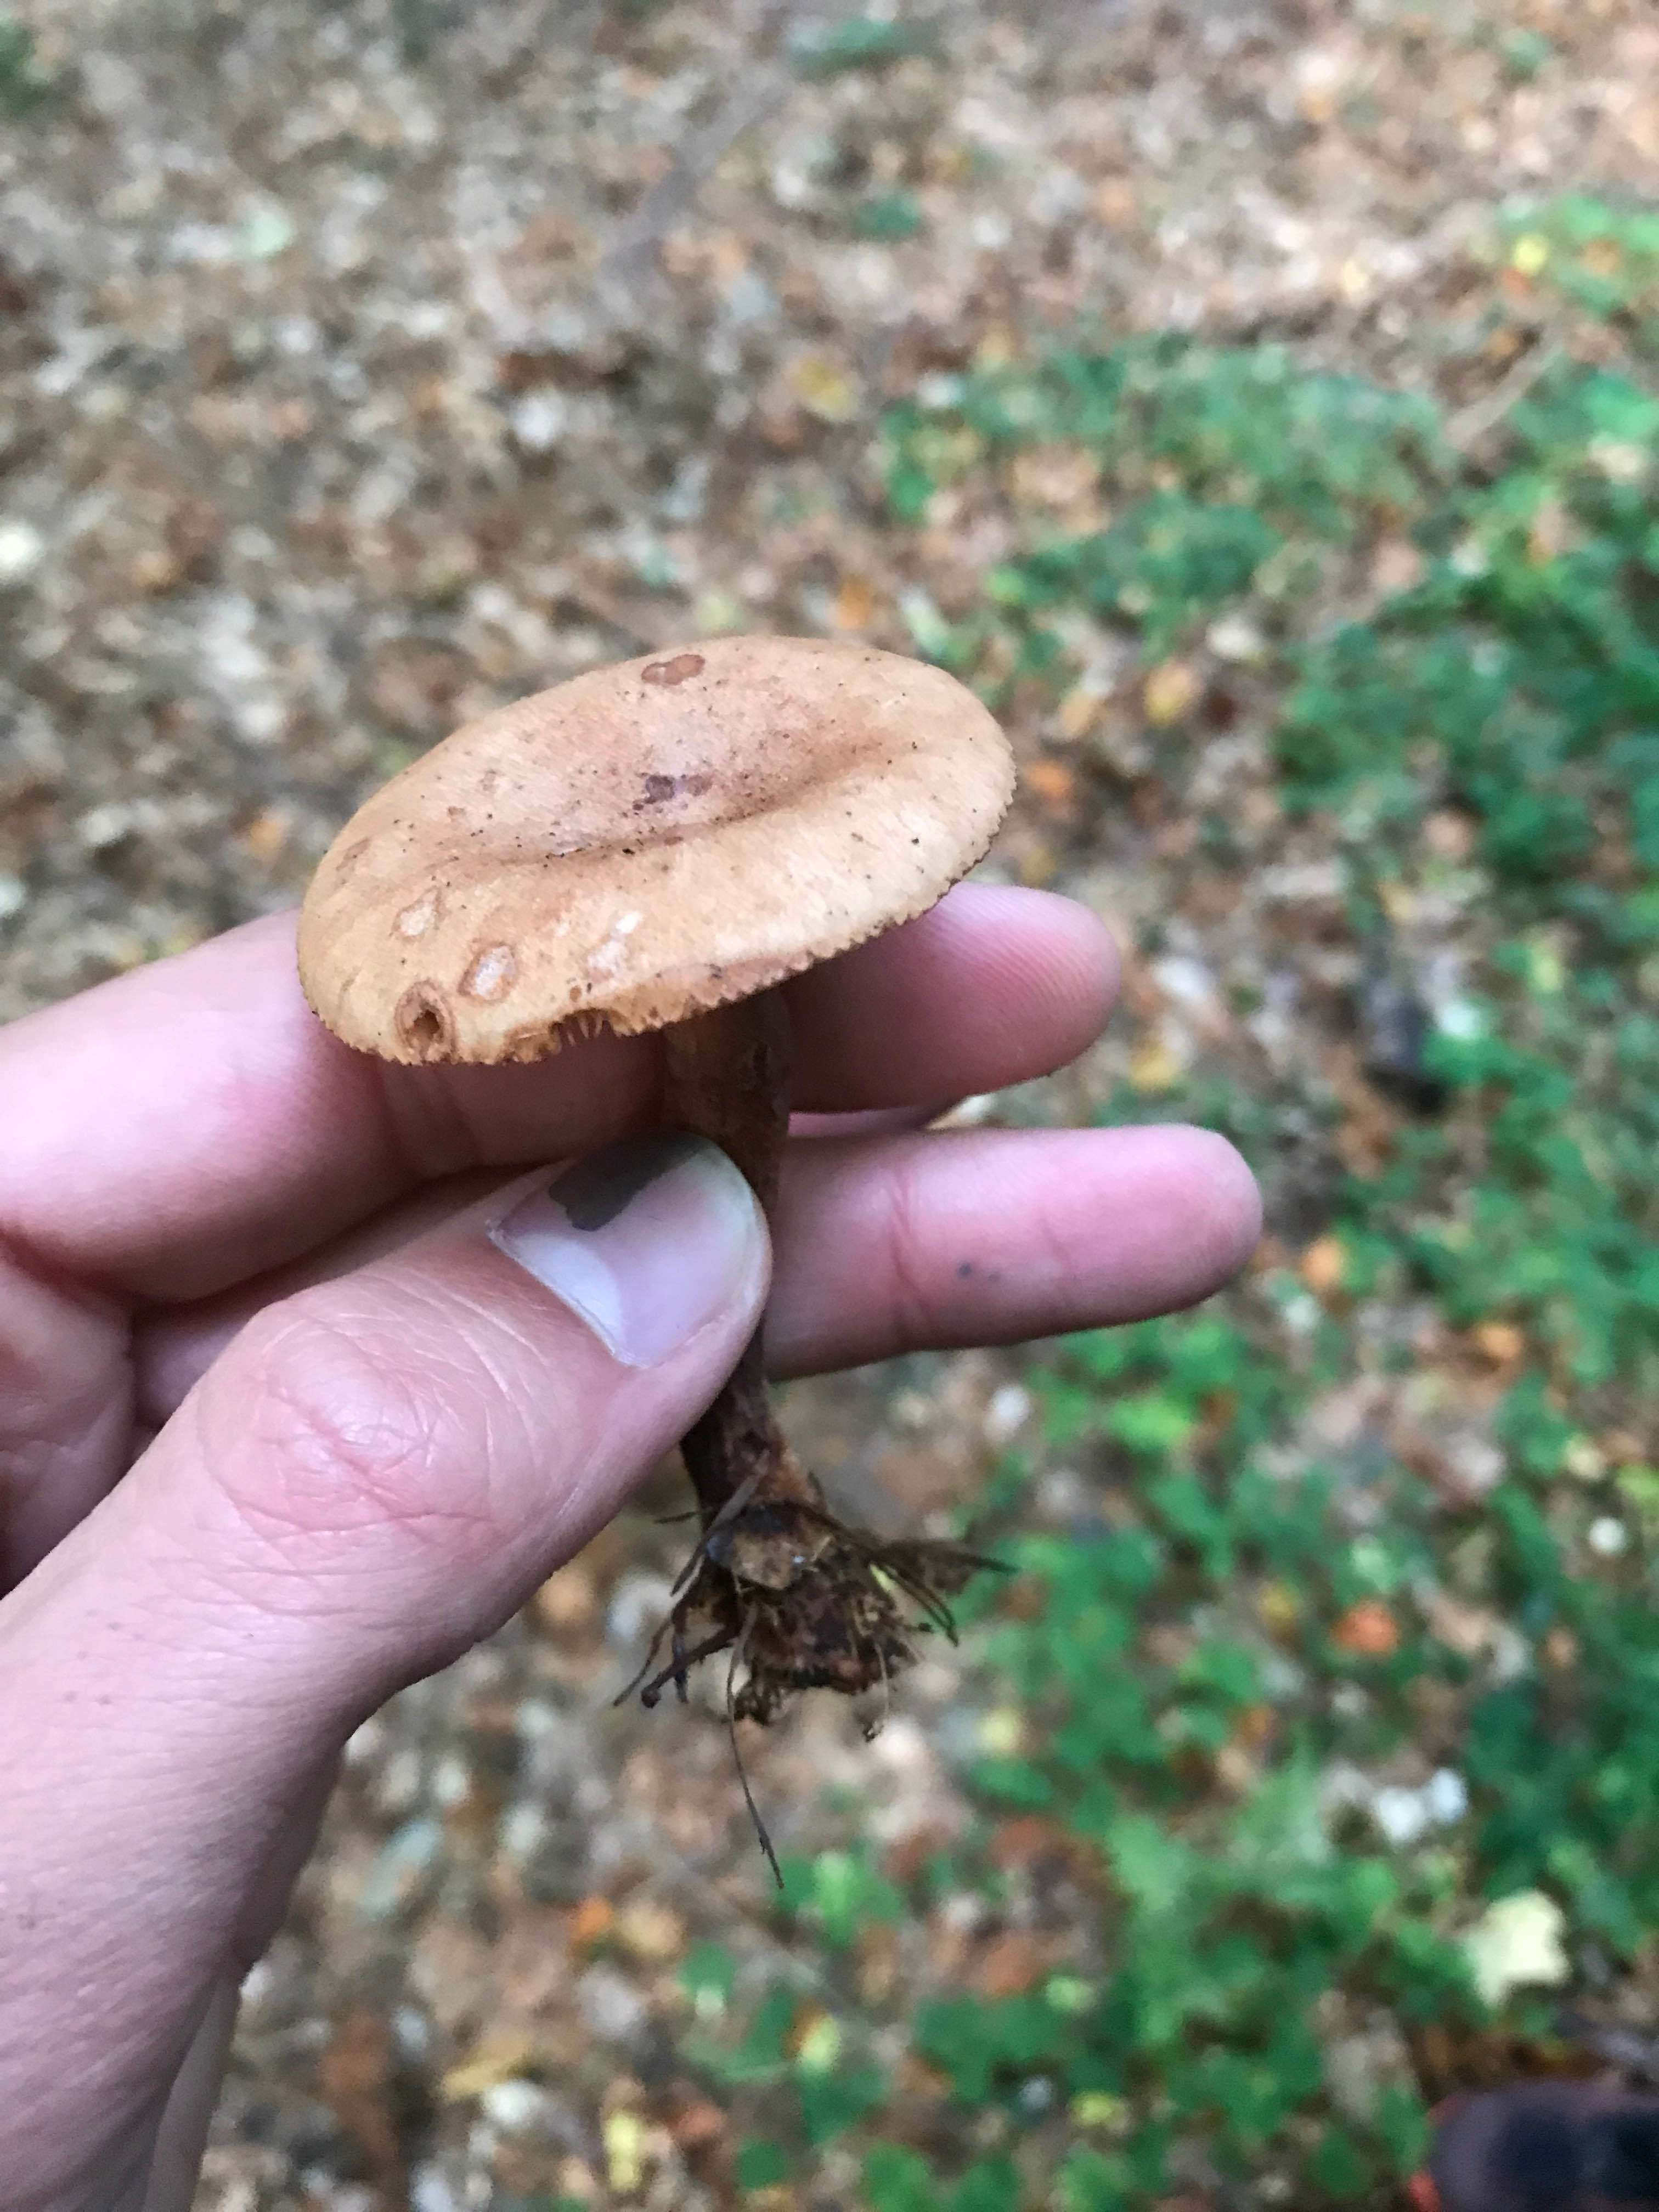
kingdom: Fungi
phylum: Basidiomycota
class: Agaricomycetes
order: Russulales
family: Russulaceae
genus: Lactarius
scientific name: Lactarius camphoratus
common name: kamfer-mælkehat
